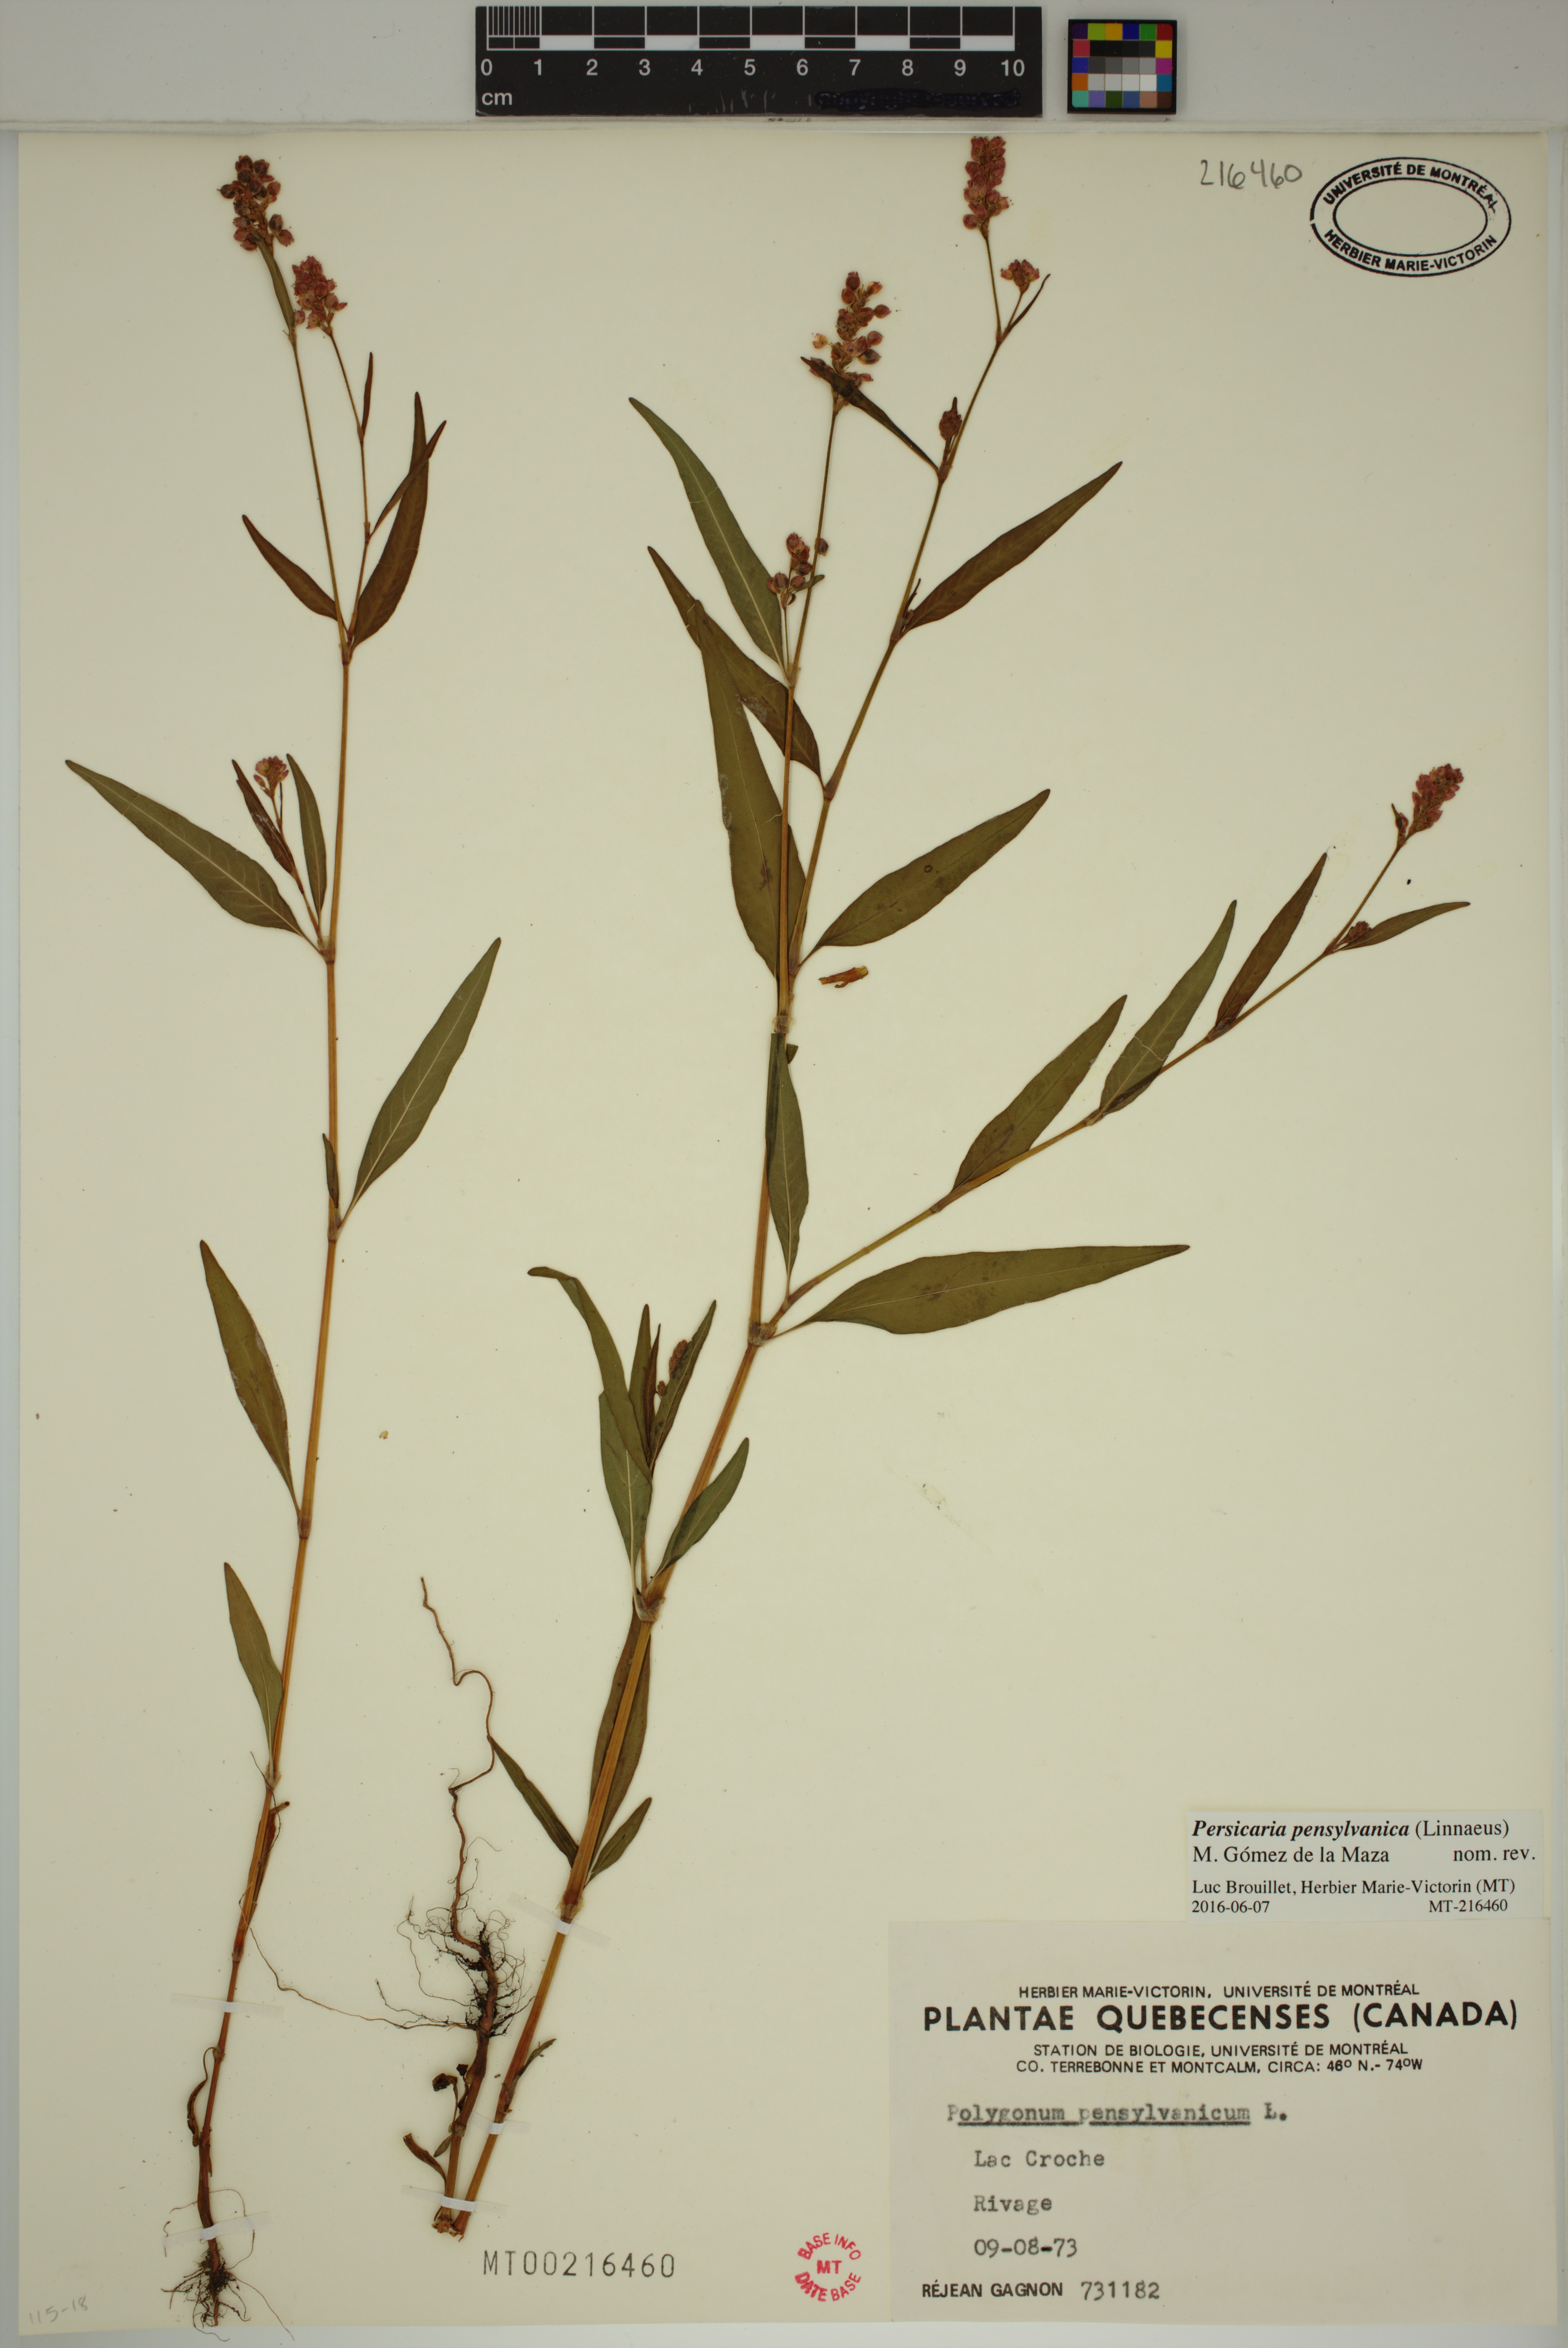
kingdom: Plantae
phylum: Tracheophyta
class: Magnoliopsida
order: Caryophyllales
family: Polygonaceae
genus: Persicaria
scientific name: Persicaria pensylvanica
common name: Pinkweed
